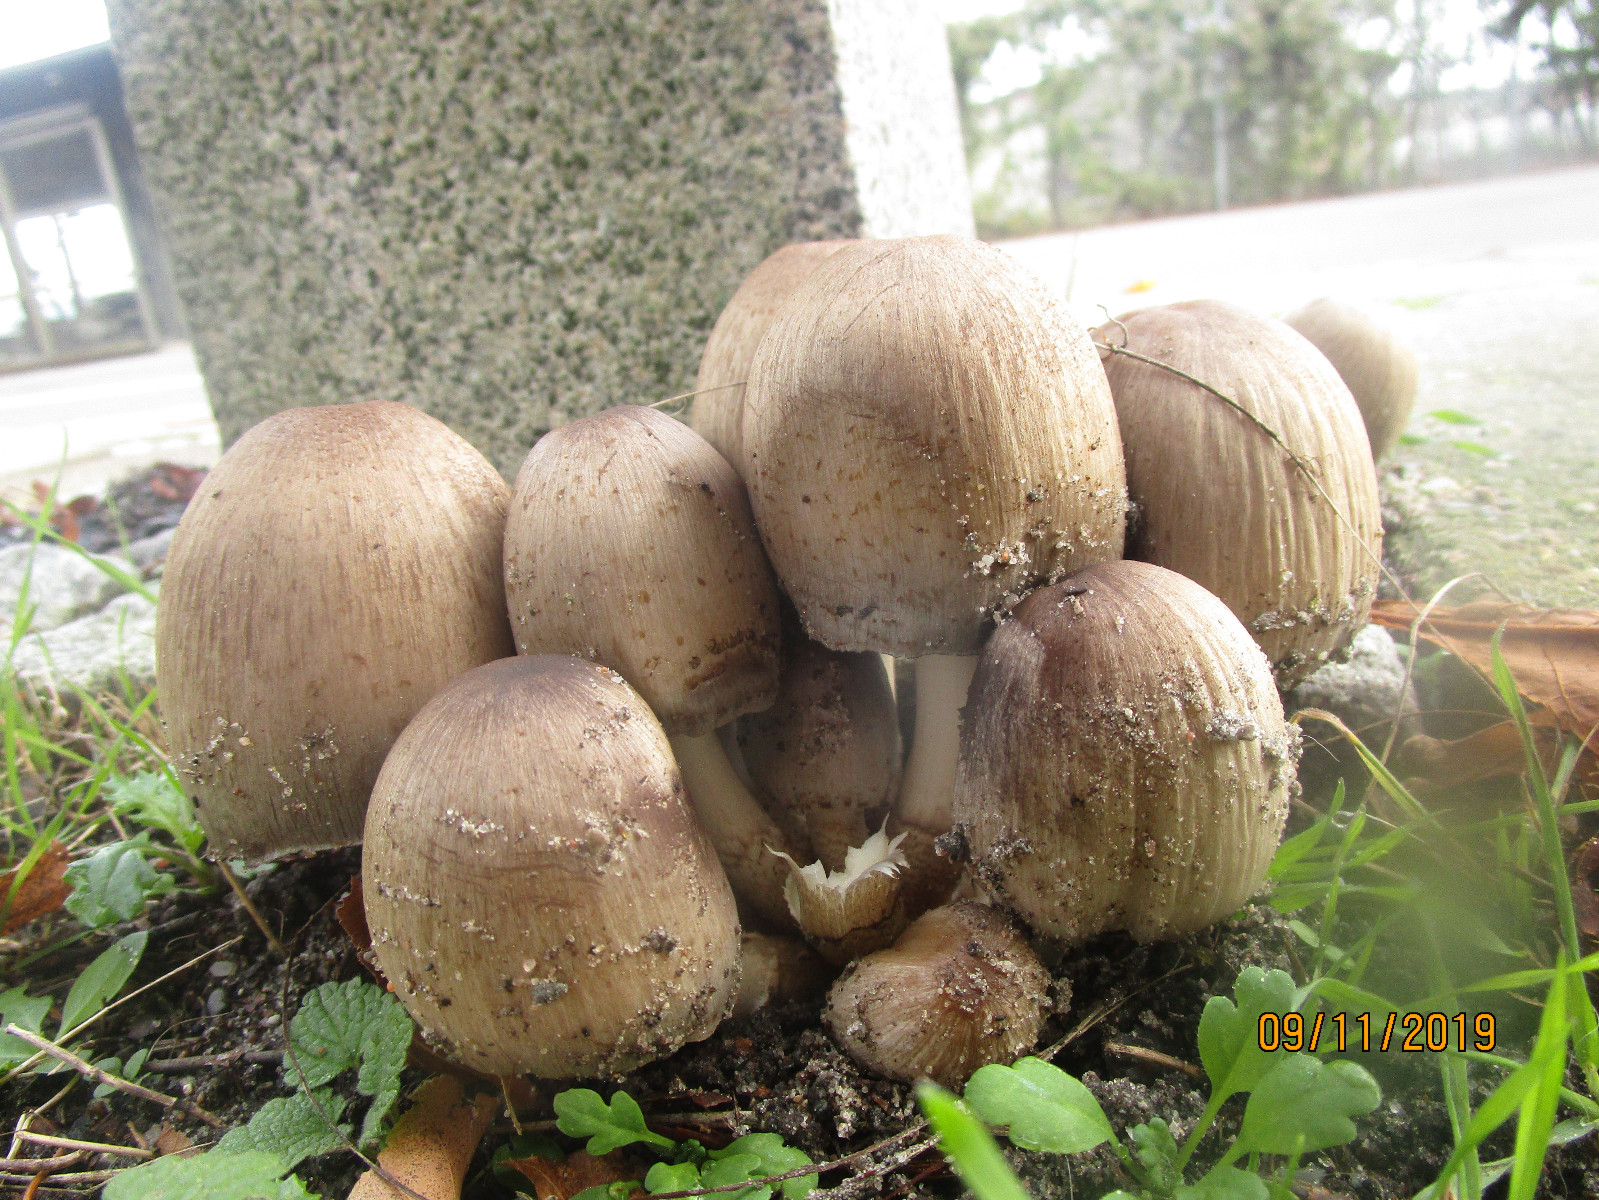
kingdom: Fungi
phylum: Basidiomycota
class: Agaricomycetes
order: Agaricales
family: Psathyrellaceae
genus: Coprinopsis
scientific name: Coprinopsis romagnesiana
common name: brunskællet blækhat
